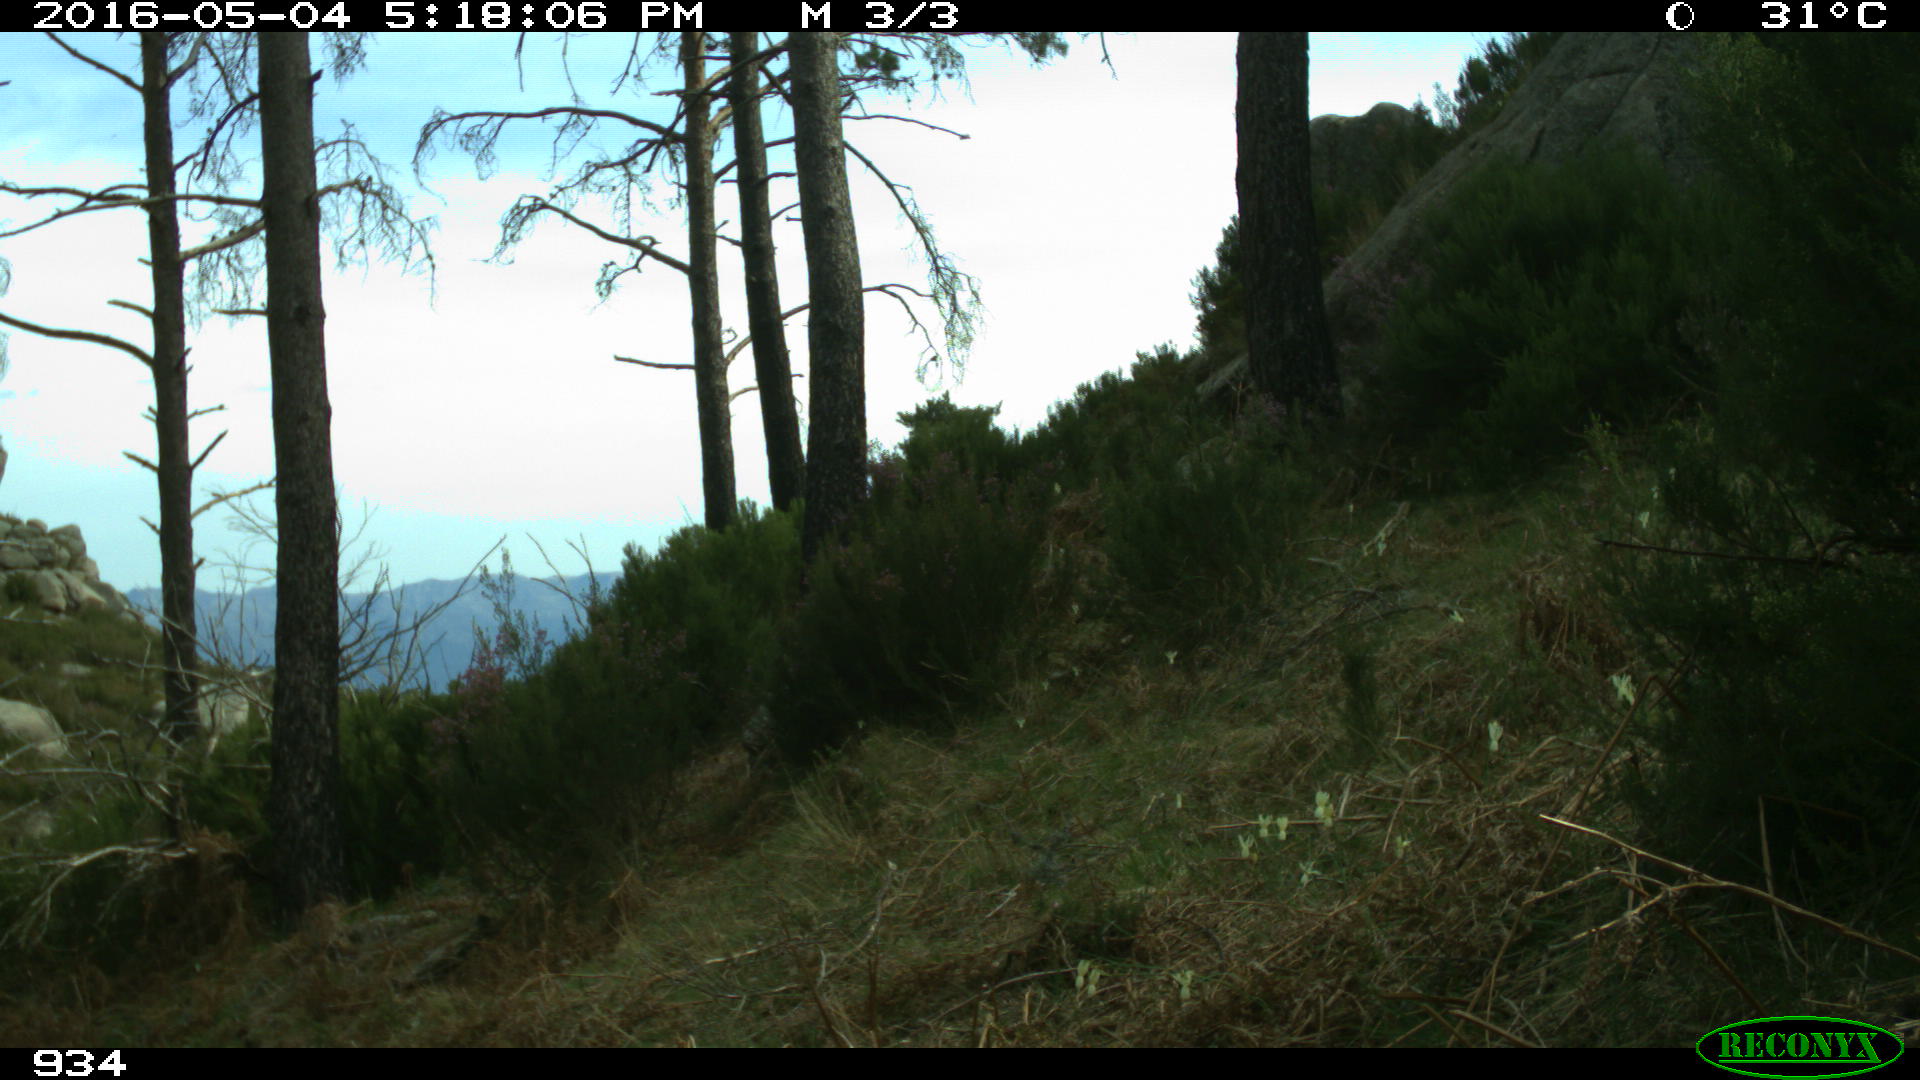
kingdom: Animalia
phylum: Chordata
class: Mammalia
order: Perissodactyla
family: Equidae
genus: Equus
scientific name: Equus caballus
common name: Horse
